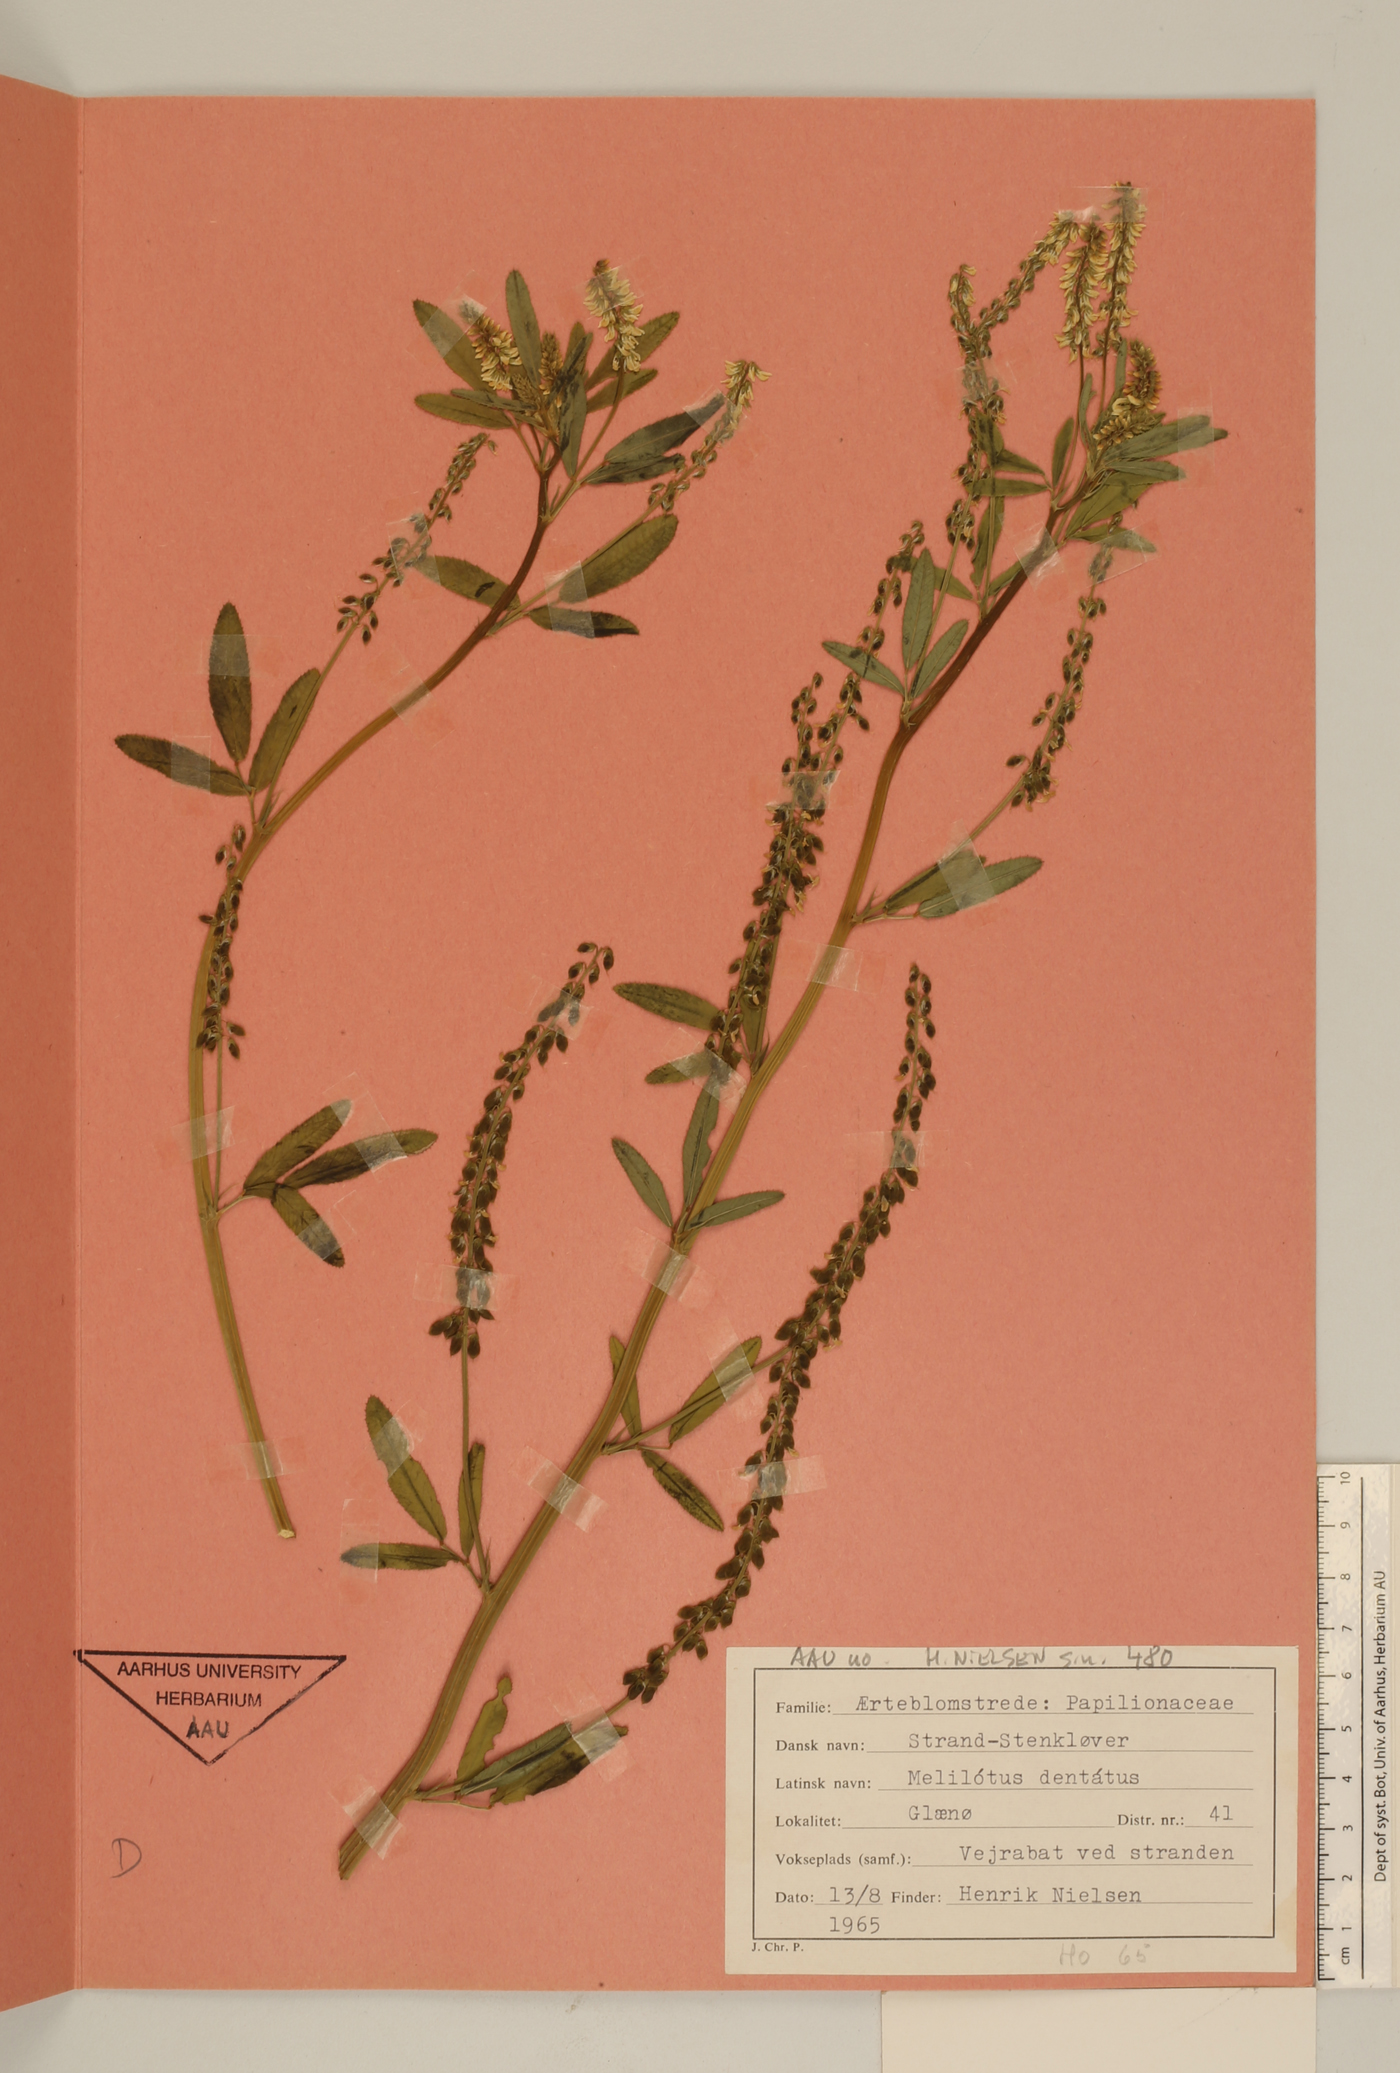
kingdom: Plantae
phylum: Tracheophyta
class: Magnoliopsida
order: Fabales
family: Fabaceae
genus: Melilotus
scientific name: Melilotus dentatus
